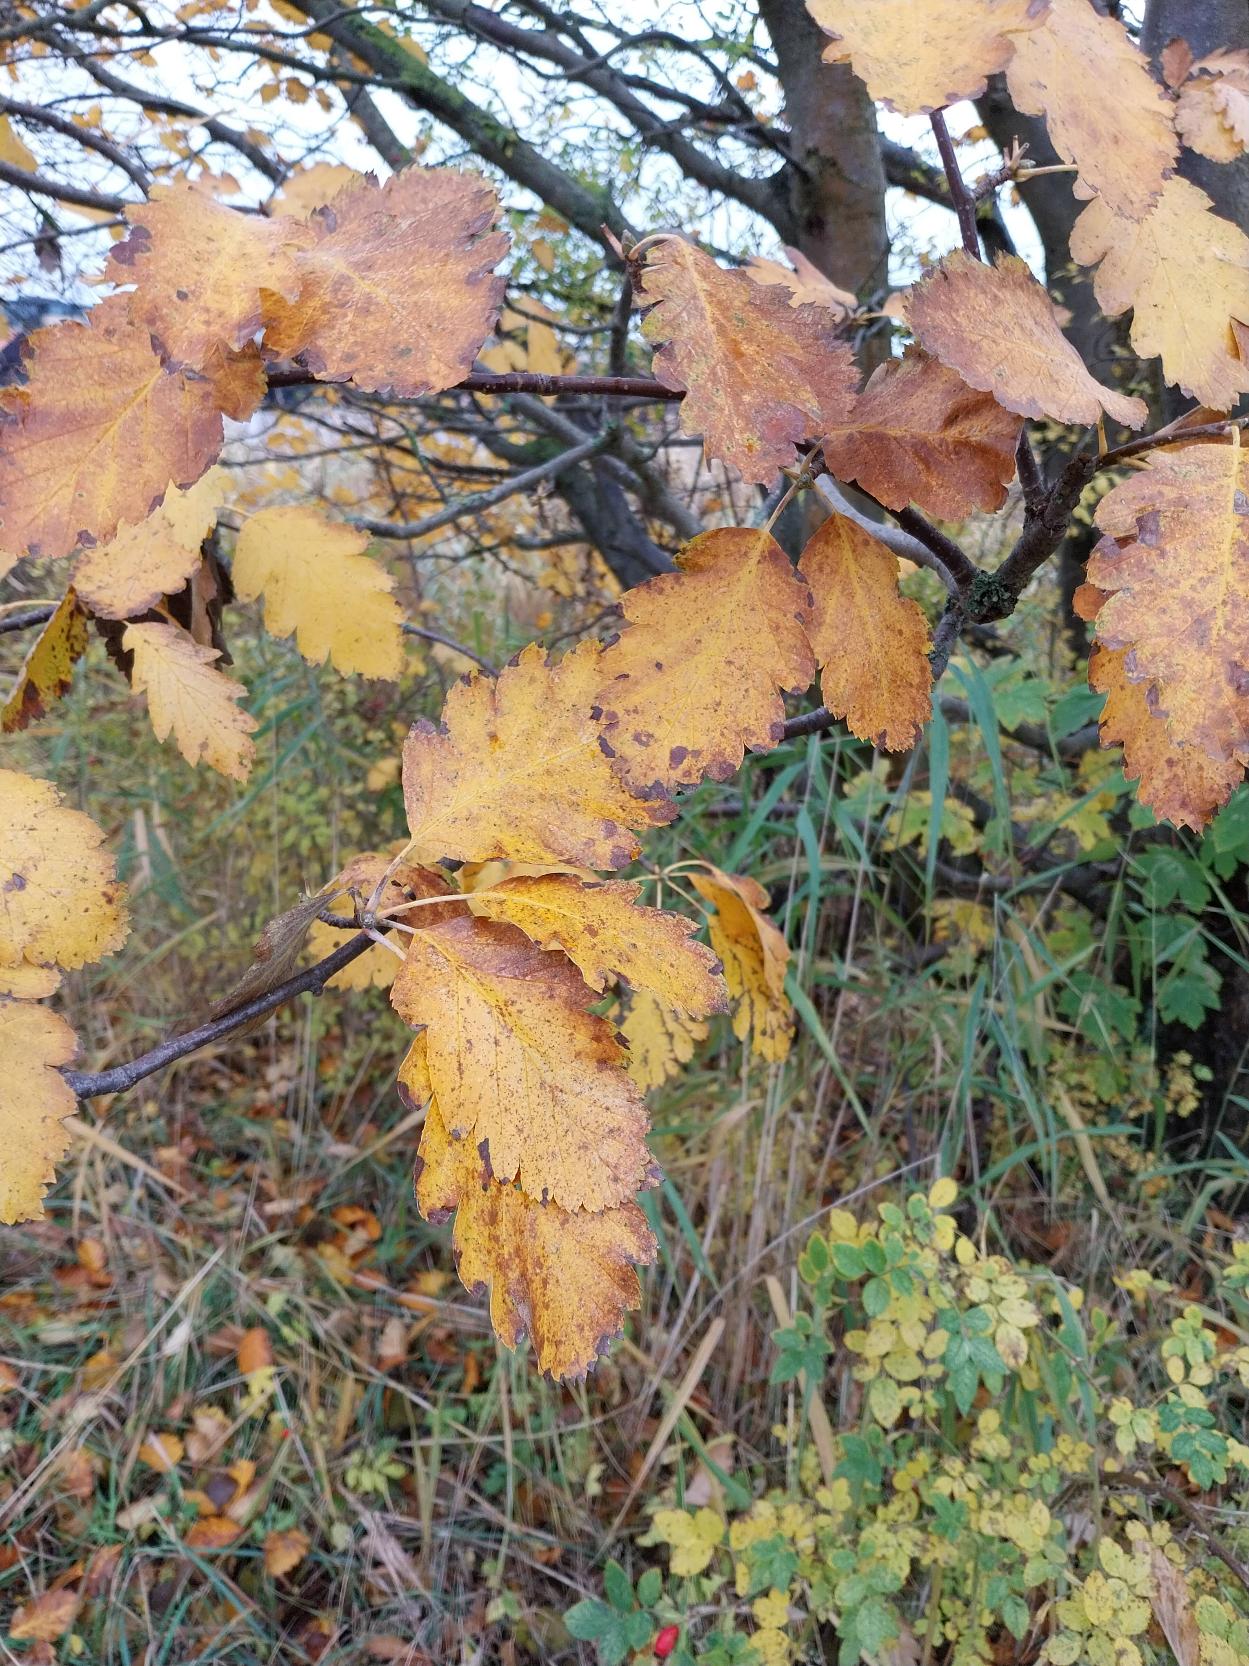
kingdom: Plantae
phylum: Tracheophyta
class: Magnoliopsida
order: Rosales
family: Rosaceae
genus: Scandosorbus
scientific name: Scandosorbus intermedia
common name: Selje-røn
